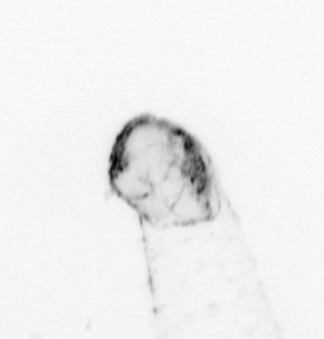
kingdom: Animalia
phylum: Chaetognatha
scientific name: Chaetognatha
